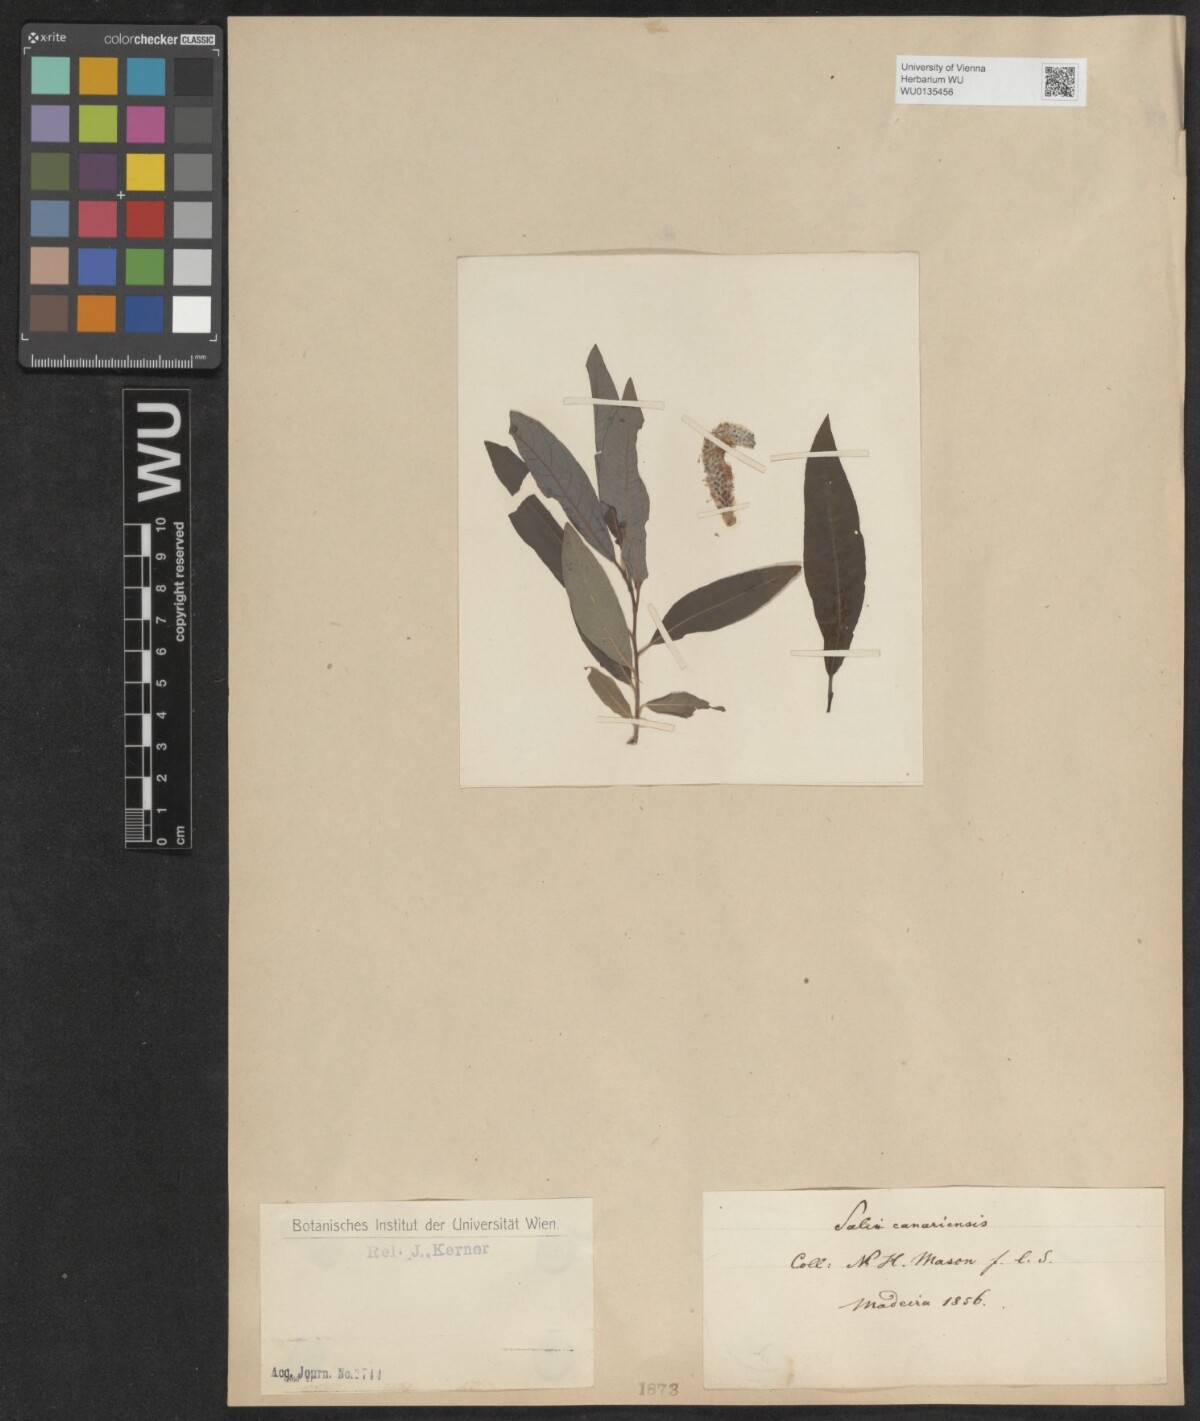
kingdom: Plantae
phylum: Tracheophyta
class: Magnoliopsida
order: Malpighiales
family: Salicaceae
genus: Salix
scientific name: Salix canariensis
